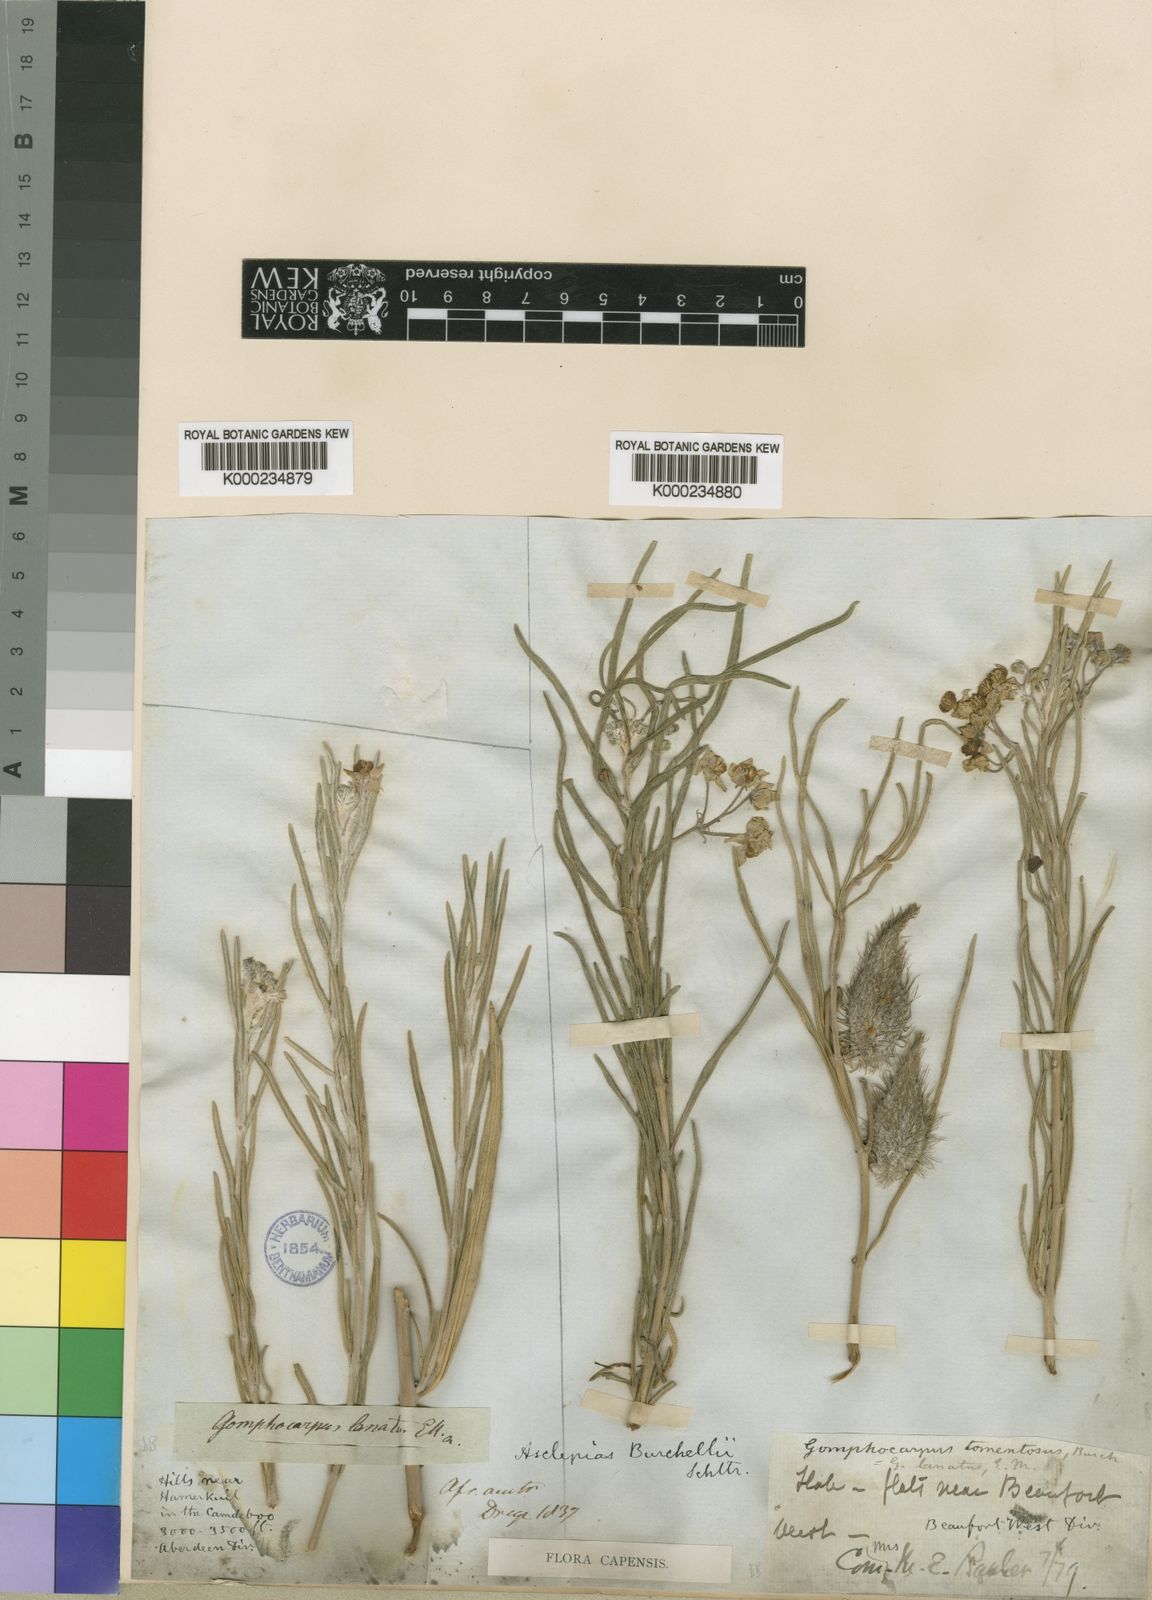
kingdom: Plantae
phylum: Tracheophyta
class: Magnoliopsida
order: Gentianales
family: Apocynaceae
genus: Gomphocarpus
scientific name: Gomphocarpus tomentosus
